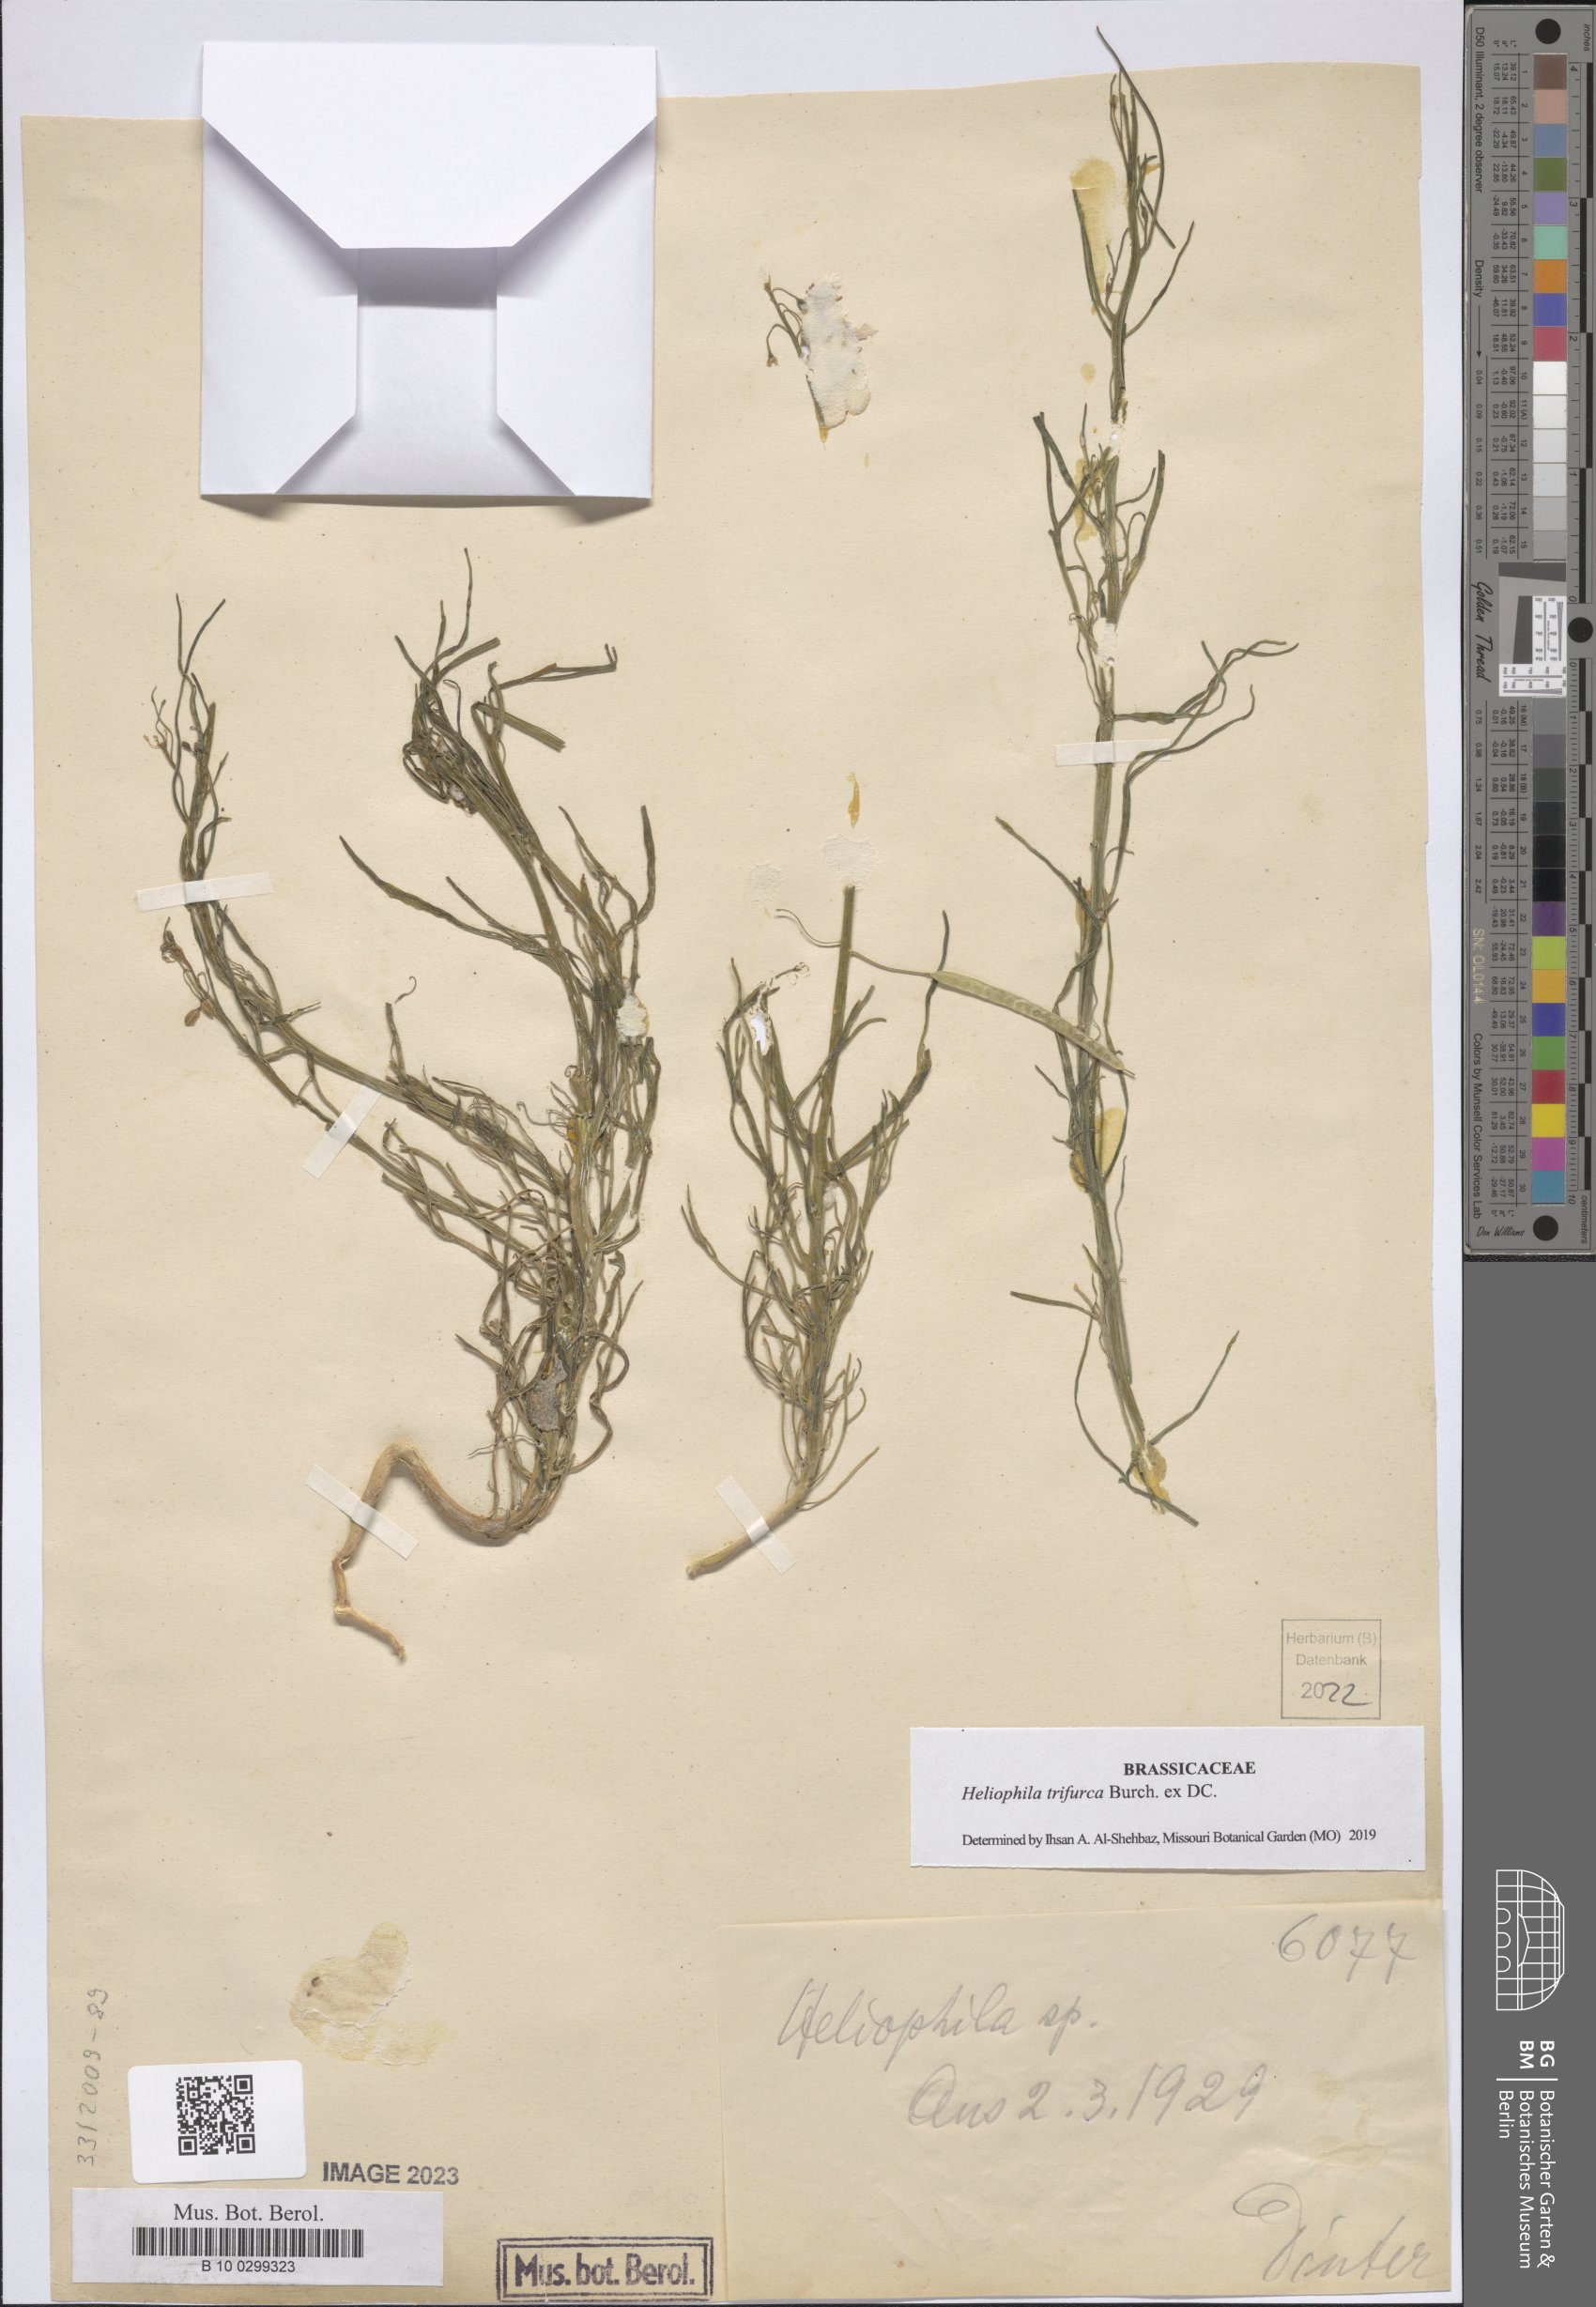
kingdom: Plantae
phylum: Tracheophyta
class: Magnoliopsida
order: Brassicales
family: Brassicaceae
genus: Heliophila
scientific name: Heliophila trifurca
